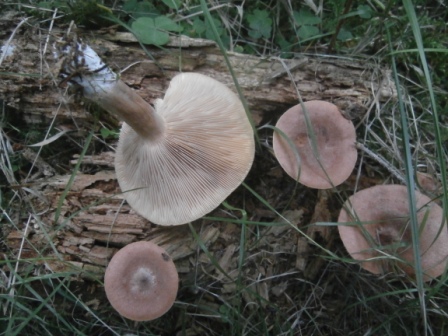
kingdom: Fungi
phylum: Basidiomycota
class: Agaricomycetes
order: Russulales
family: Russulaceae
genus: Lactarius
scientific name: Lactarius camphoratus
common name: kamfer-mælkehat
